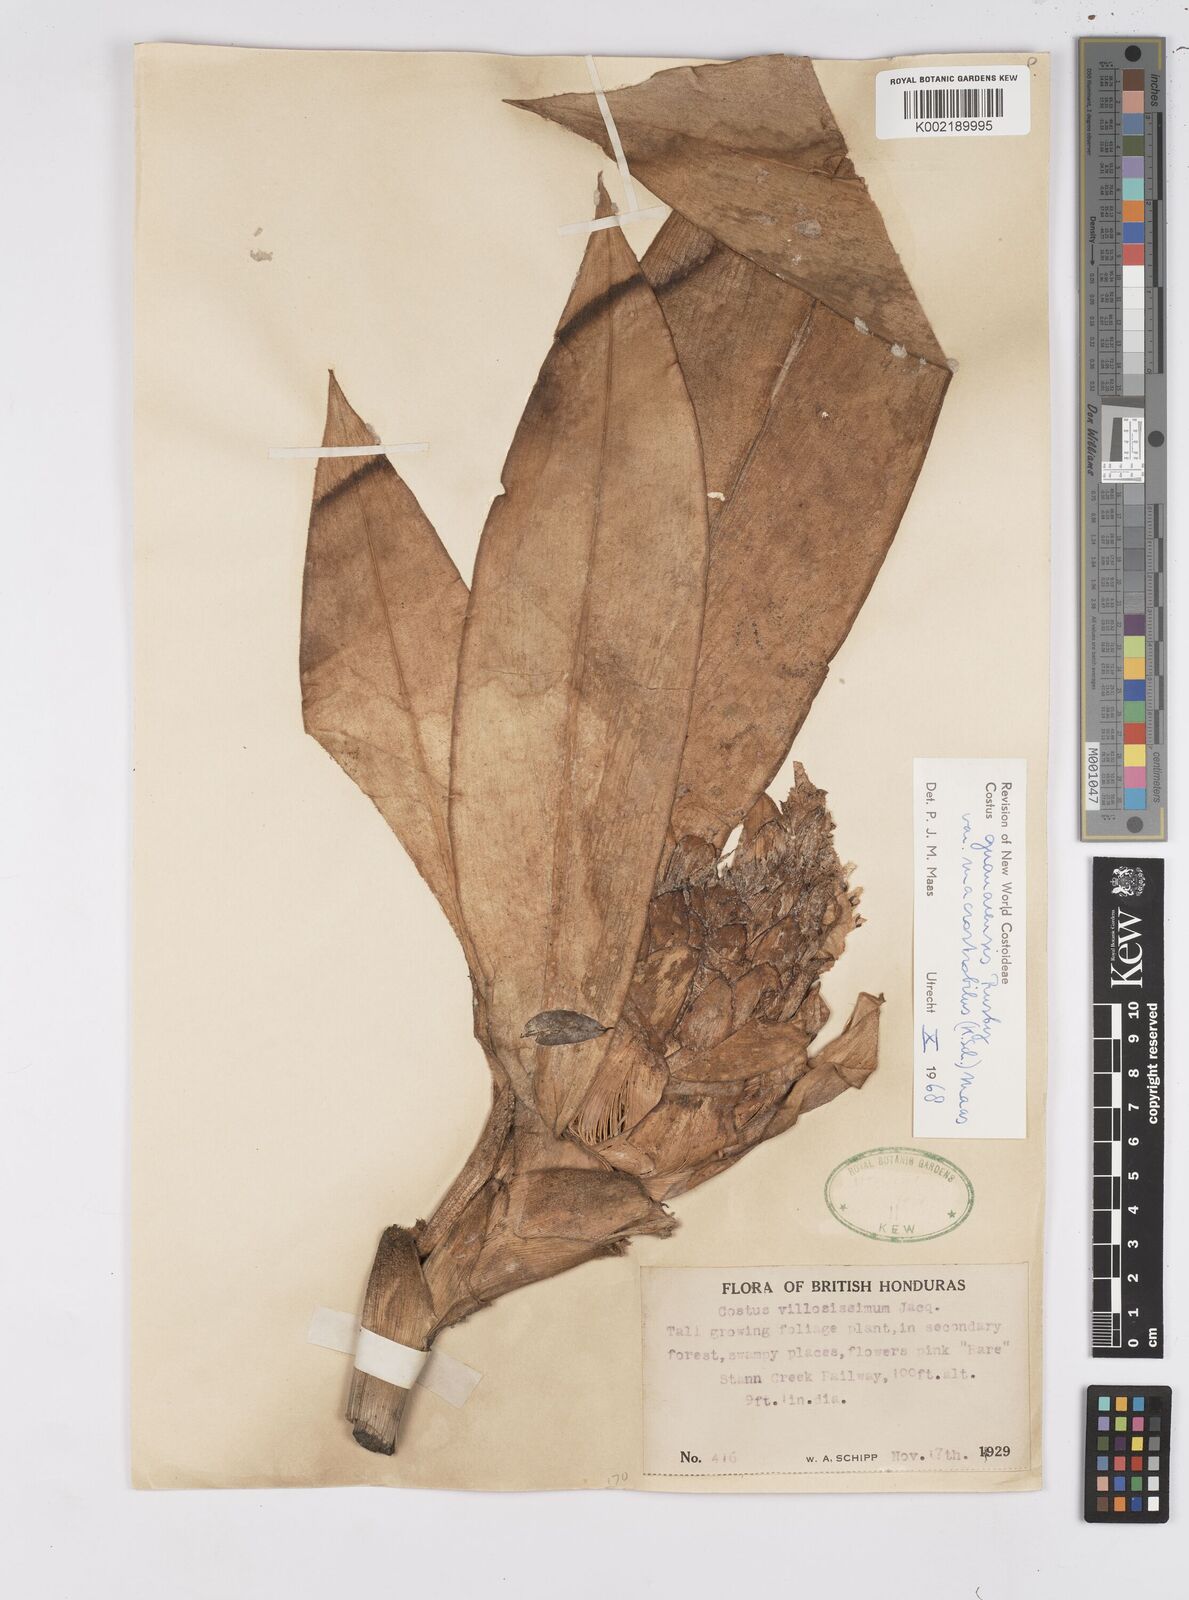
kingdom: Plantae
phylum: Tracheophyta
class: Liliopsida
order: Zingiberales
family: Costaceae
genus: Costus
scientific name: Costus guanaiensis
